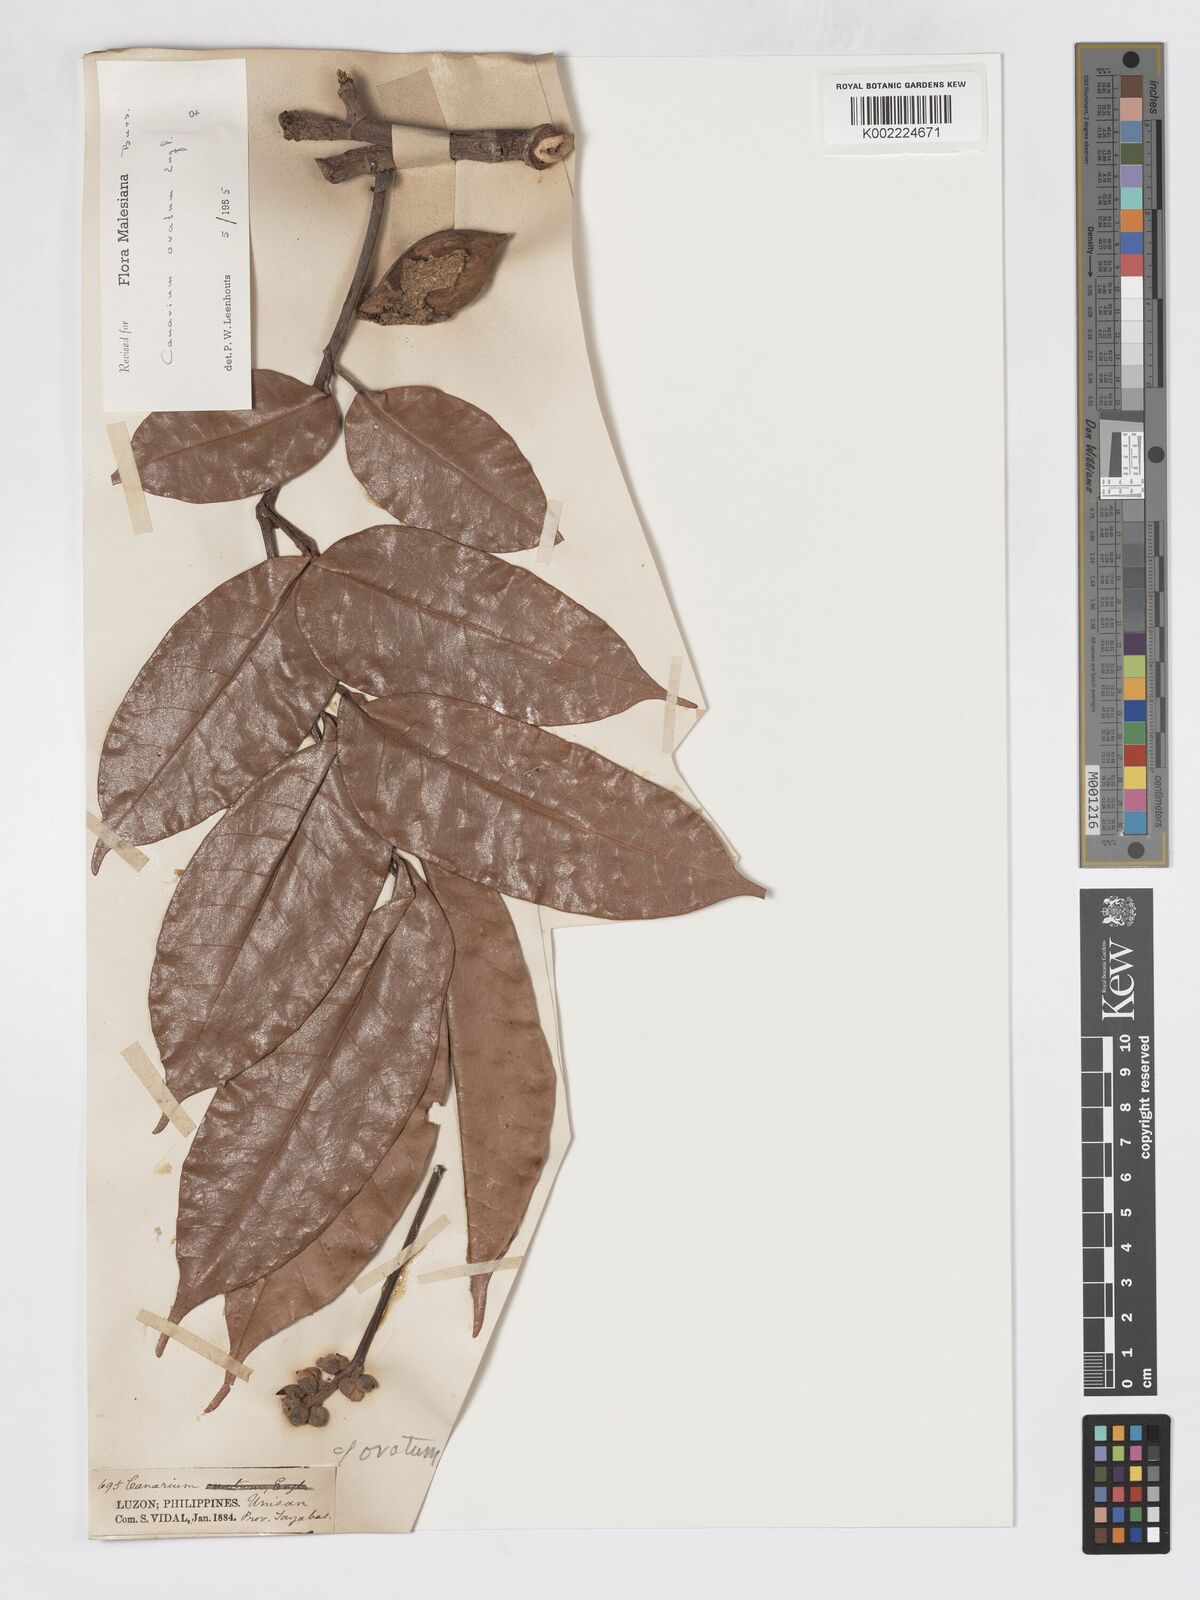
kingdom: Plantae
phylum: Tracheophyta
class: Magnoliopsida
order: Sapindales
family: Burseraceae
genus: Canarium
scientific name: Canarium ovatum
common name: Pilinut
